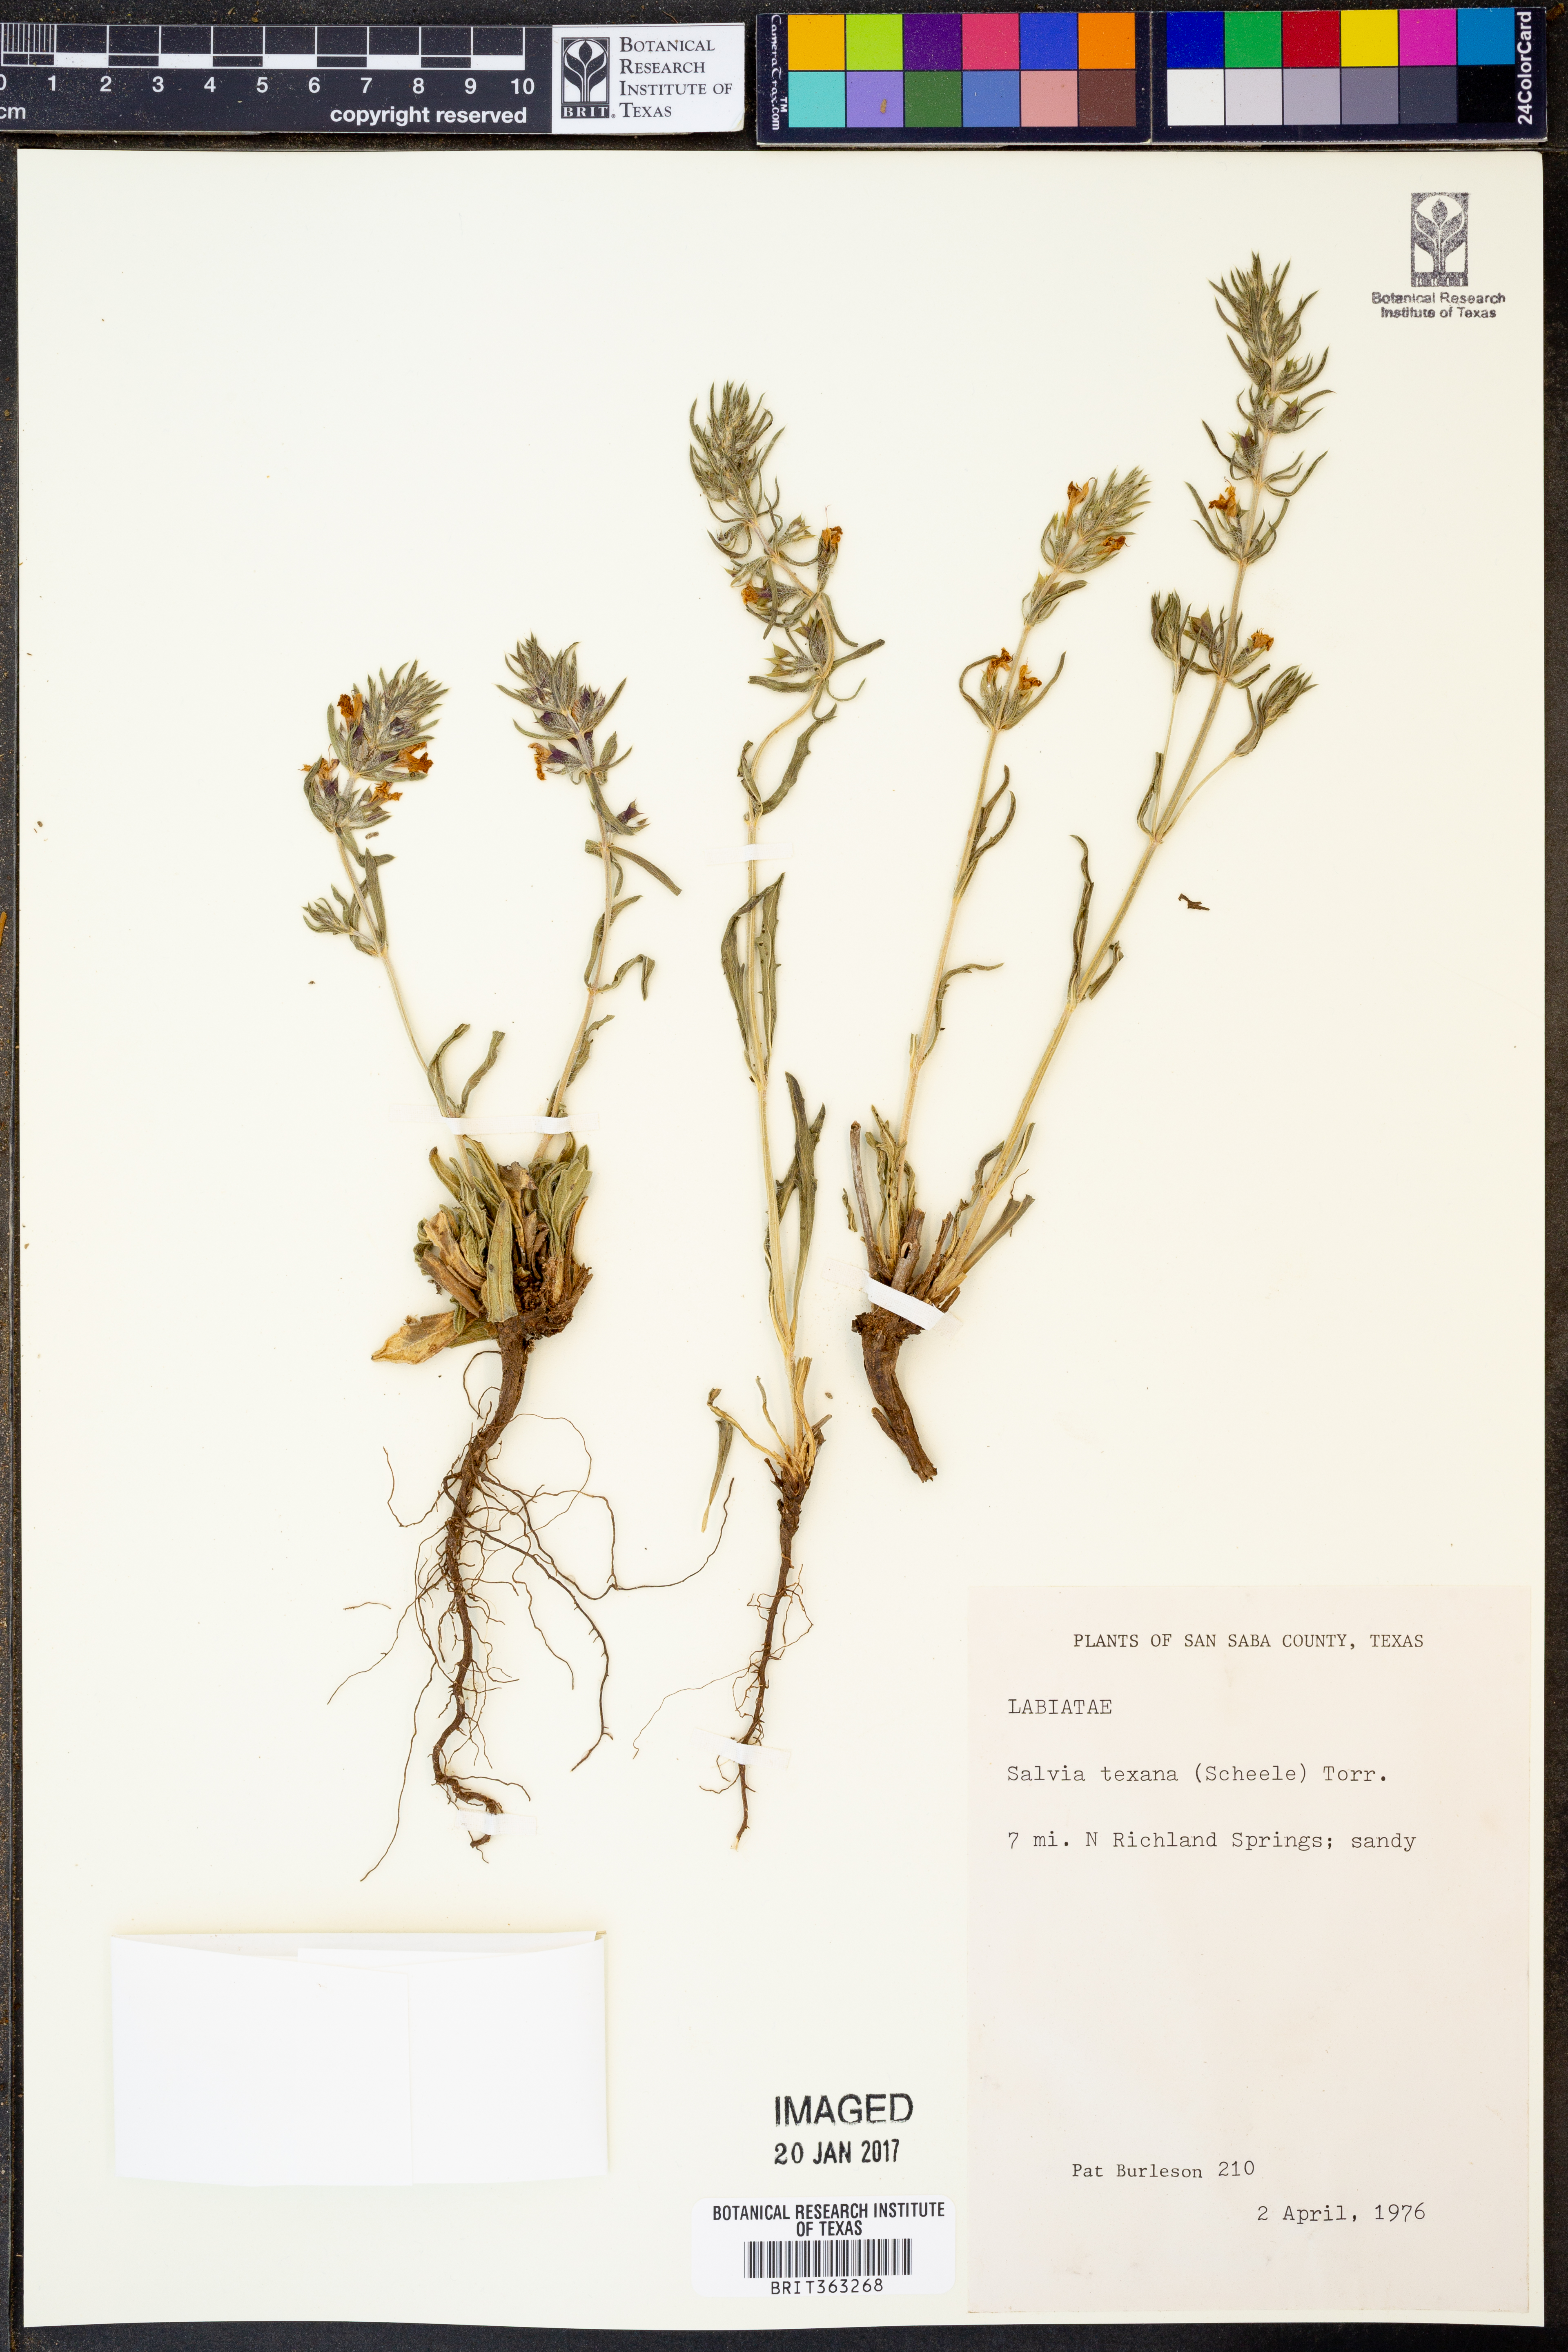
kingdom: Plantae
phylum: Tracheophyta
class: Magnoliopsida
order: Lamiales
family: Lamiaceae
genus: Salvia
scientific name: Salvia texana
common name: Texas sage
